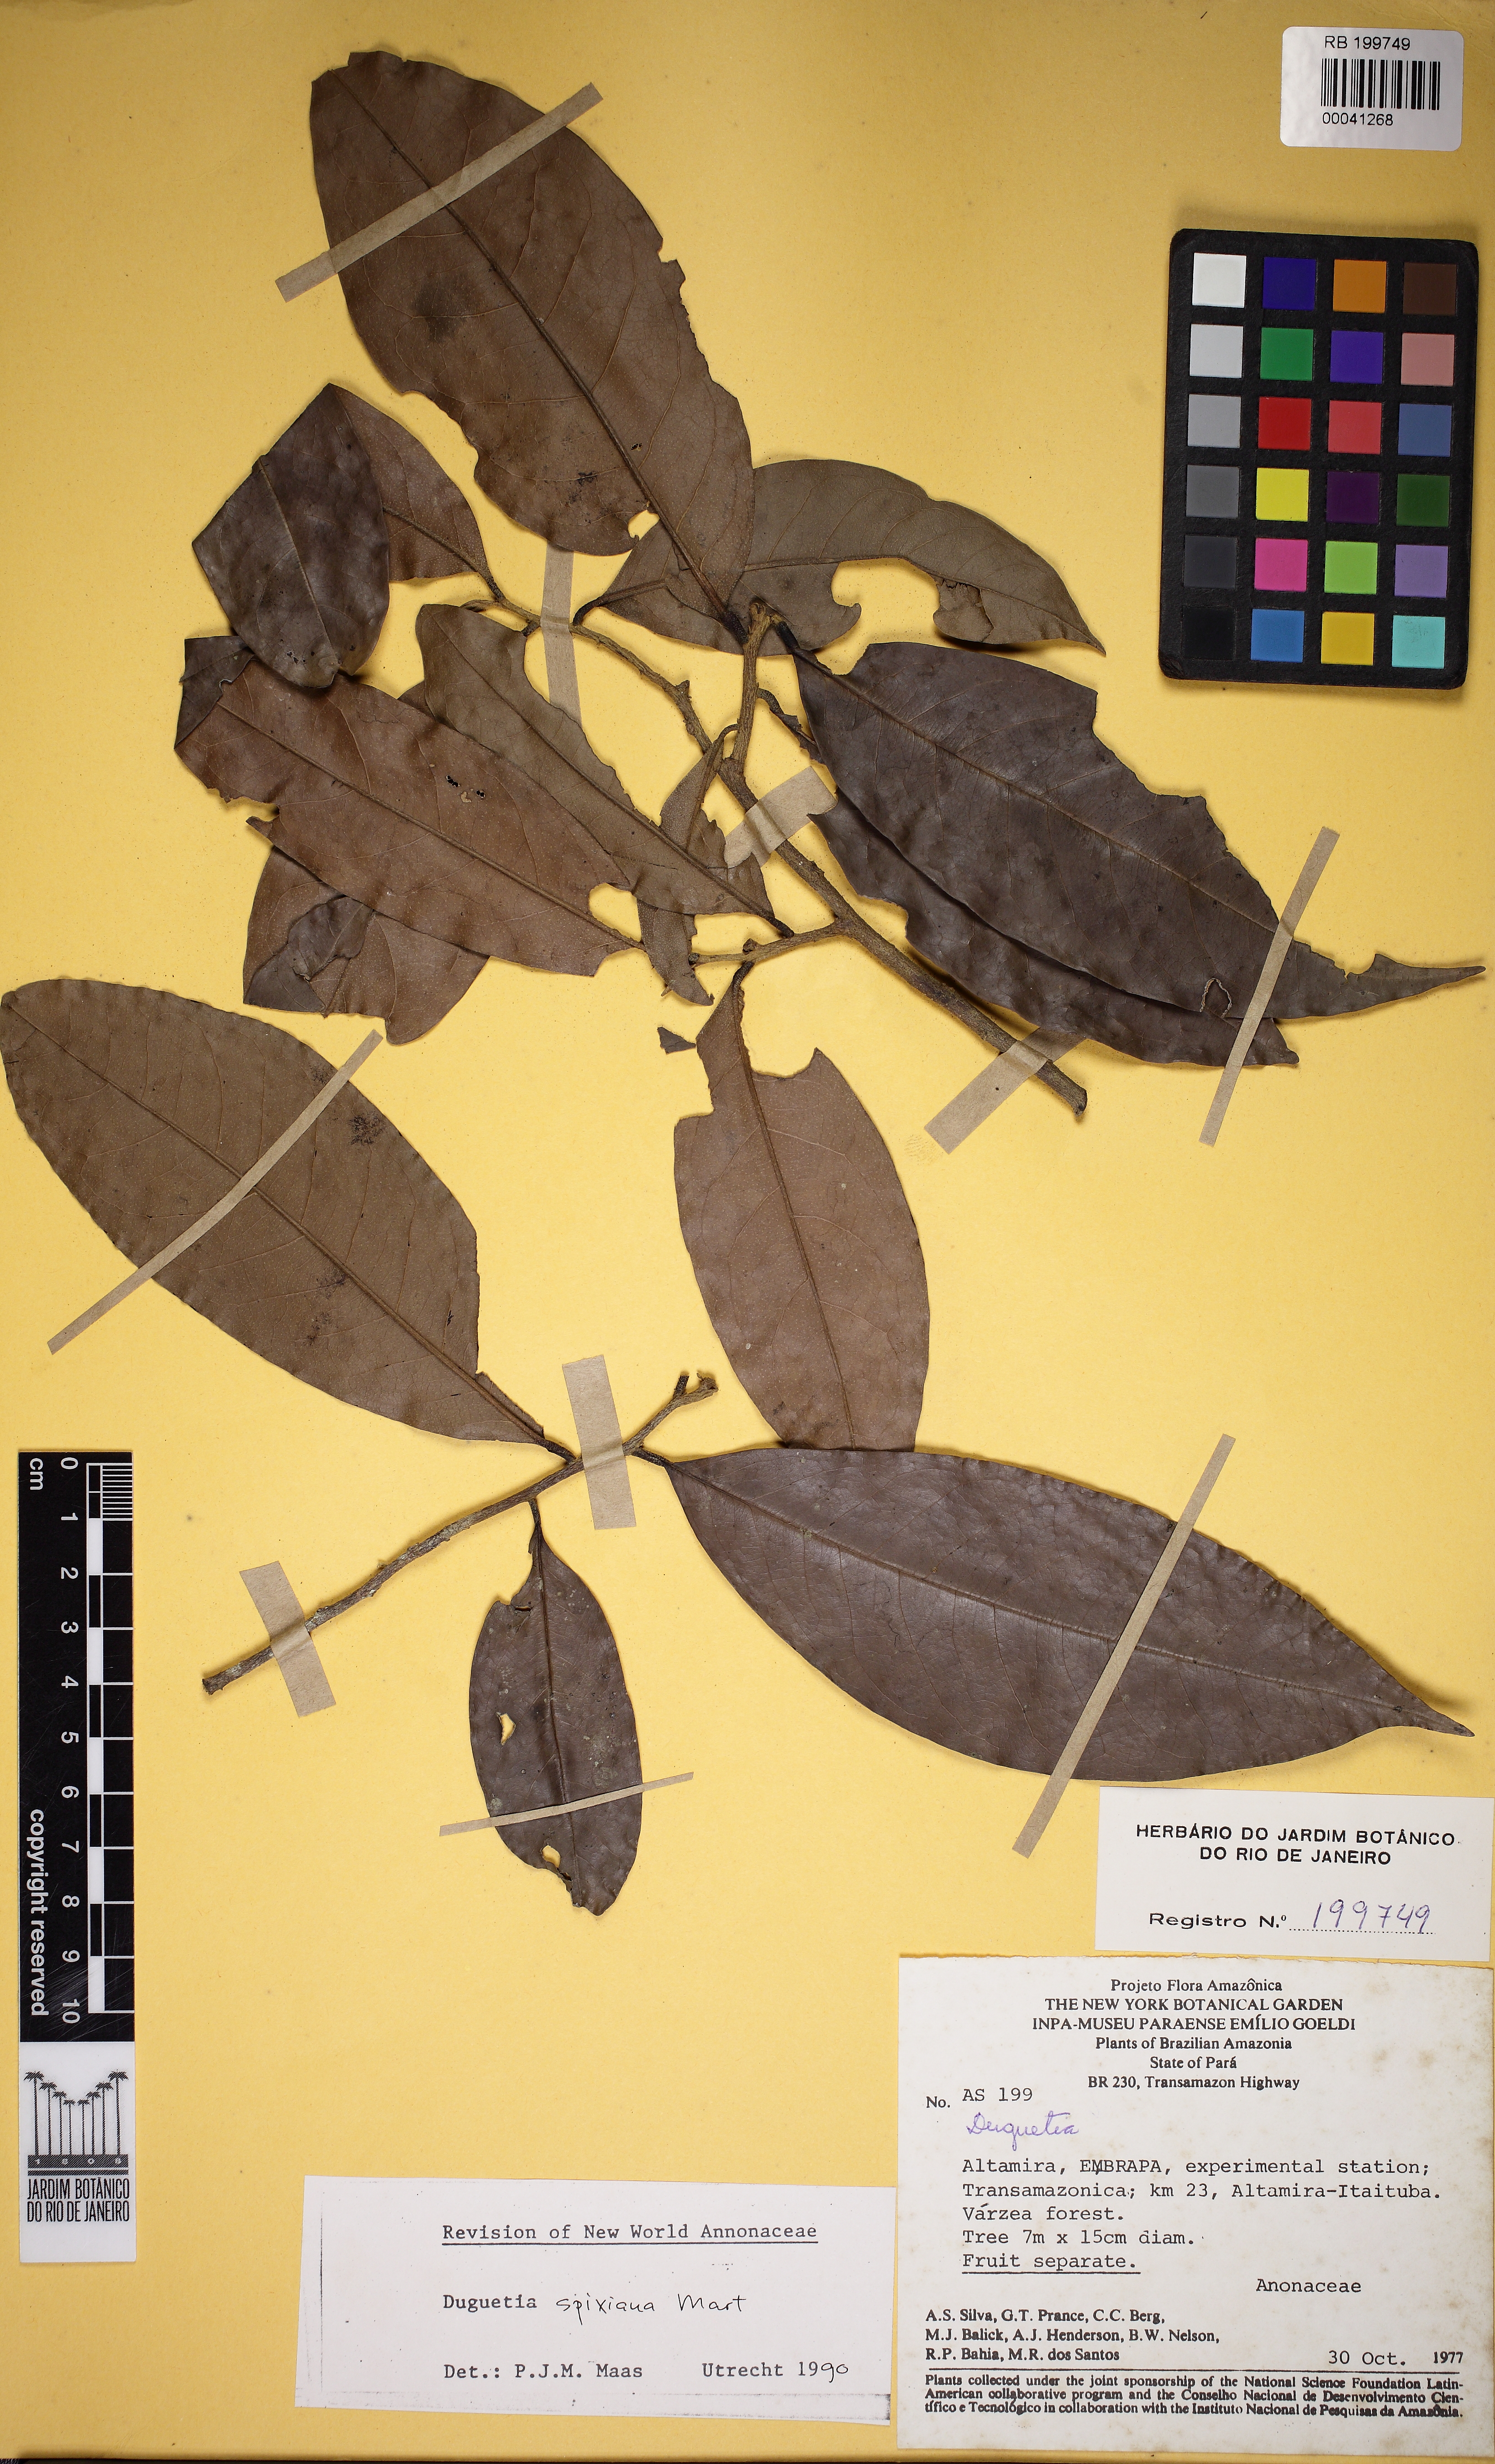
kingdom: Plantae
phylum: Tracheophyta
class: Magnoliopsida
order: Magnoliales
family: Annonaceae
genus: Duguetia
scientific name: Duguetia spixiana
